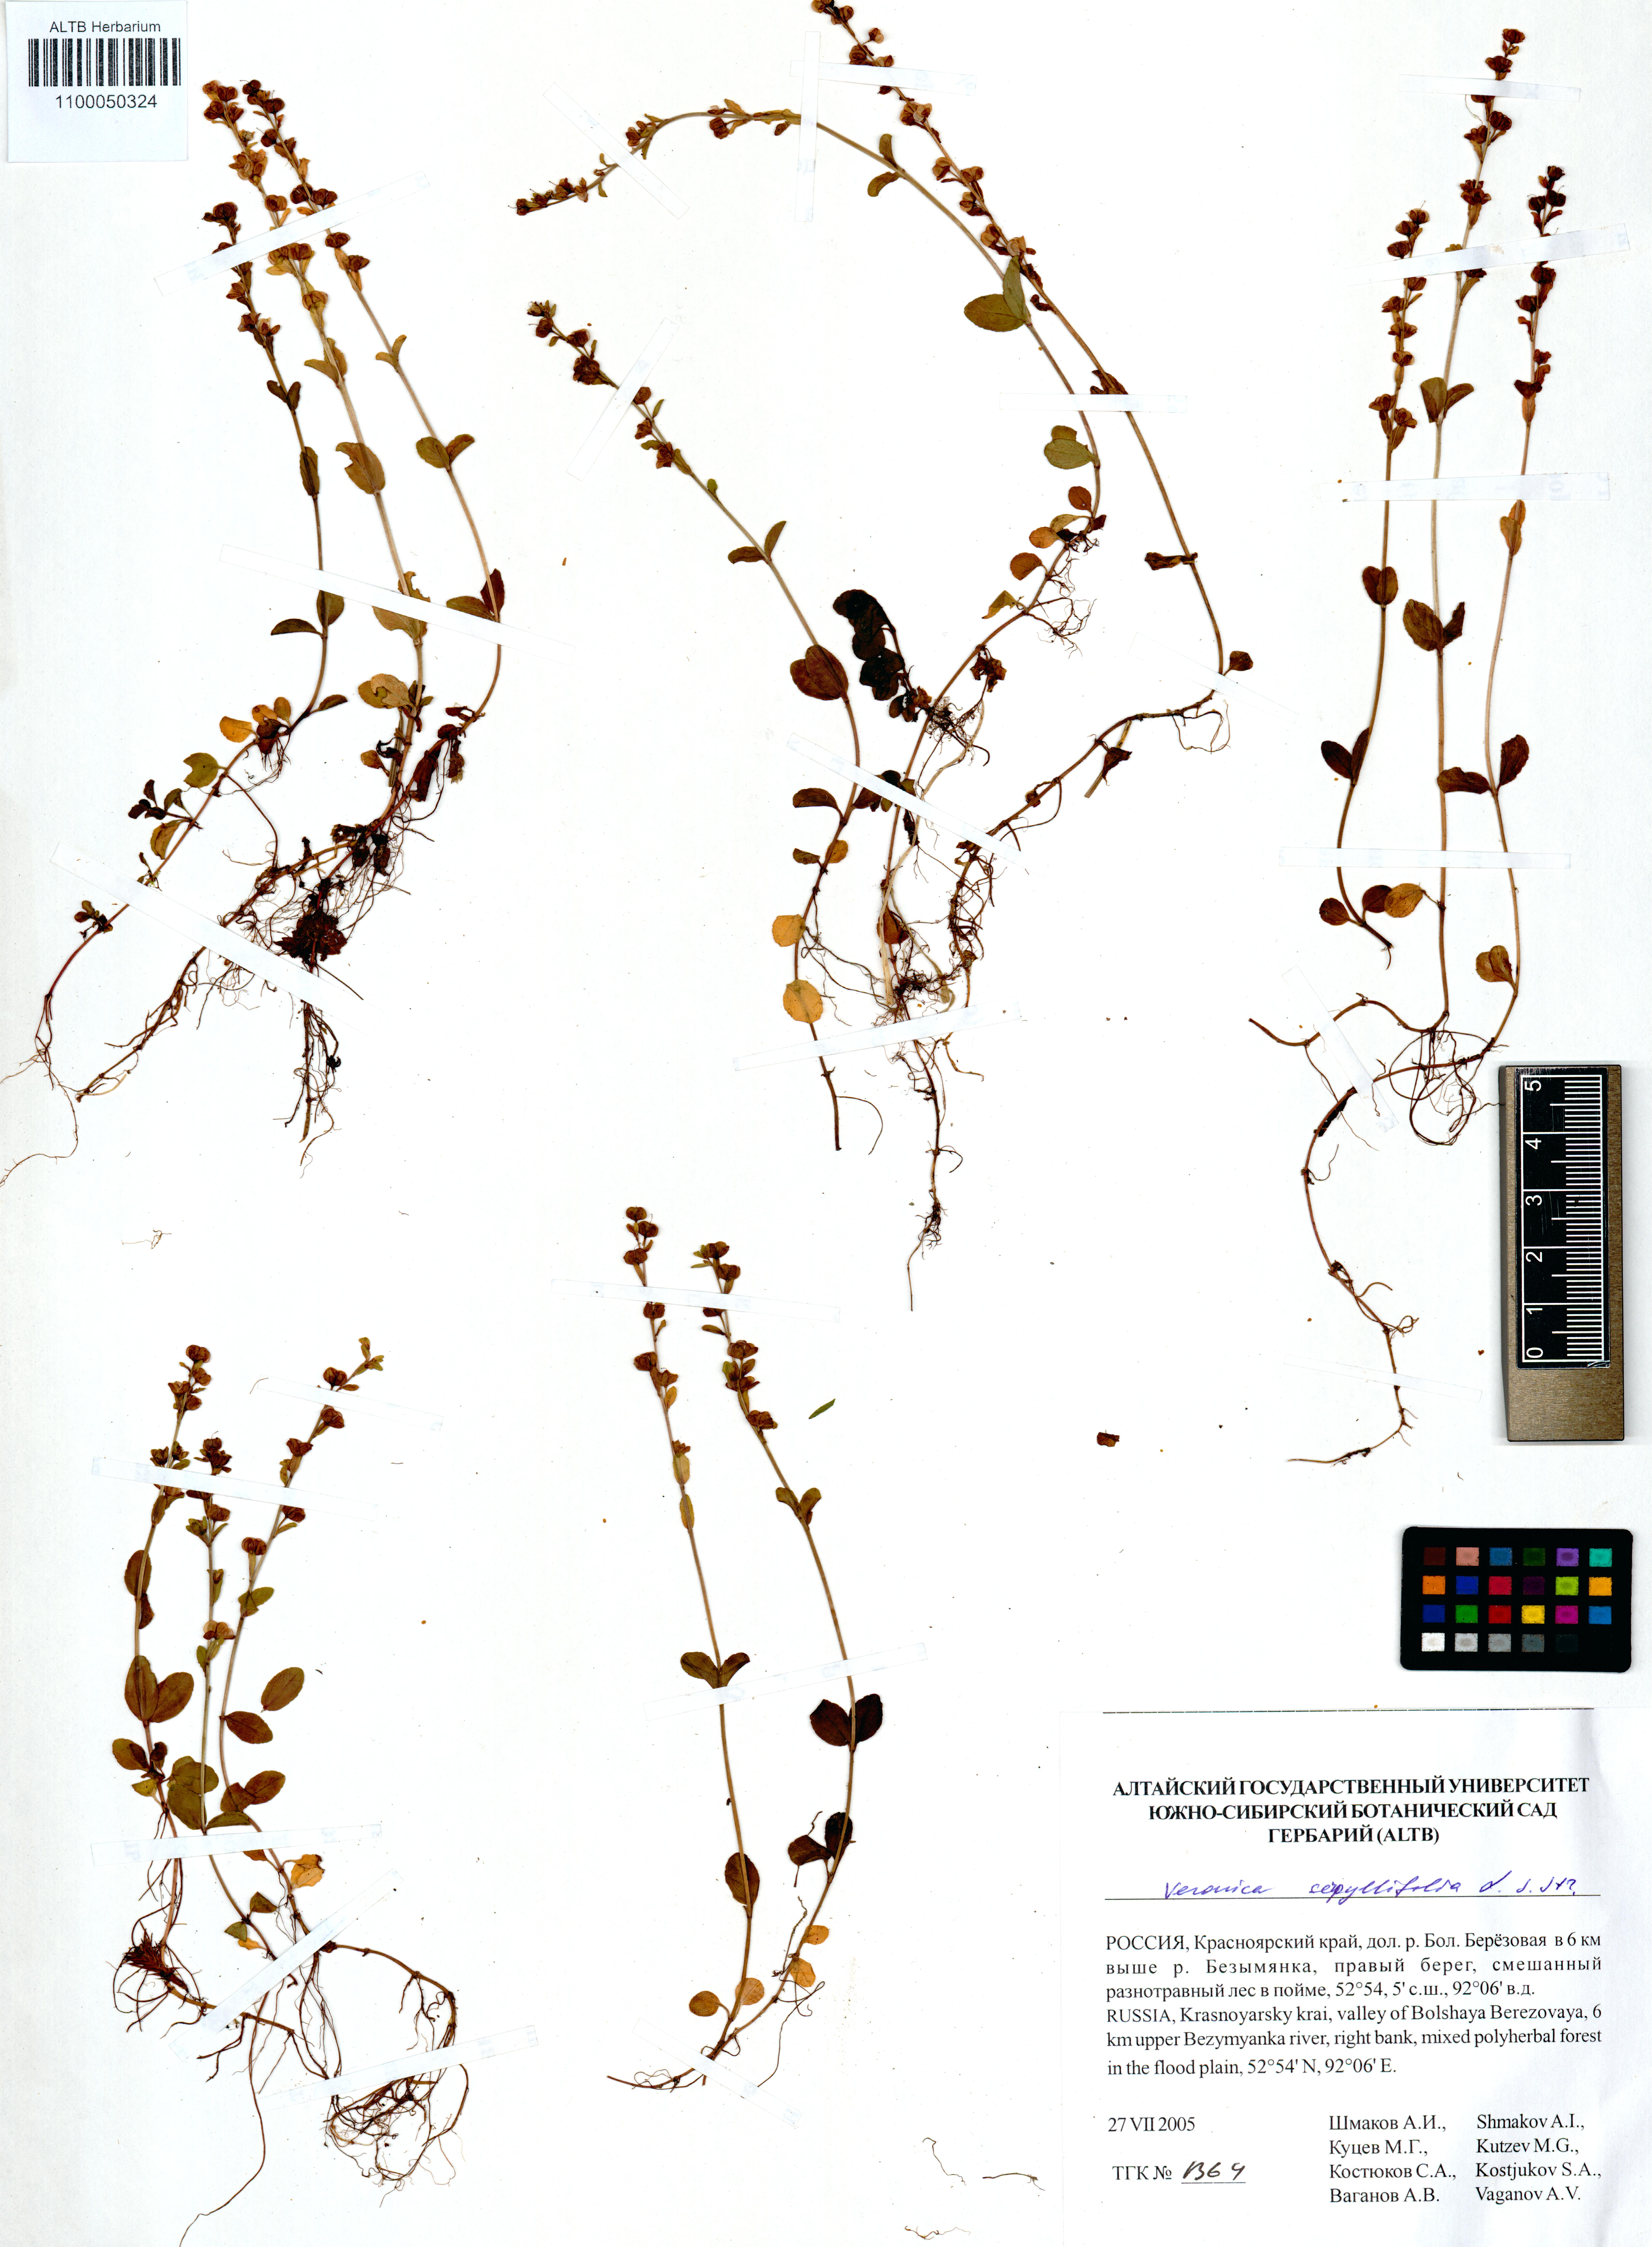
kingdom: Plantae
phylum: Tracheophyta
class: Magnoliopsida
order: Lamiales
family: Plantaginaceae
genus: Veronica
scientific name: Veronica serpyllifolia
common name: Thyme-leaved speedwell
